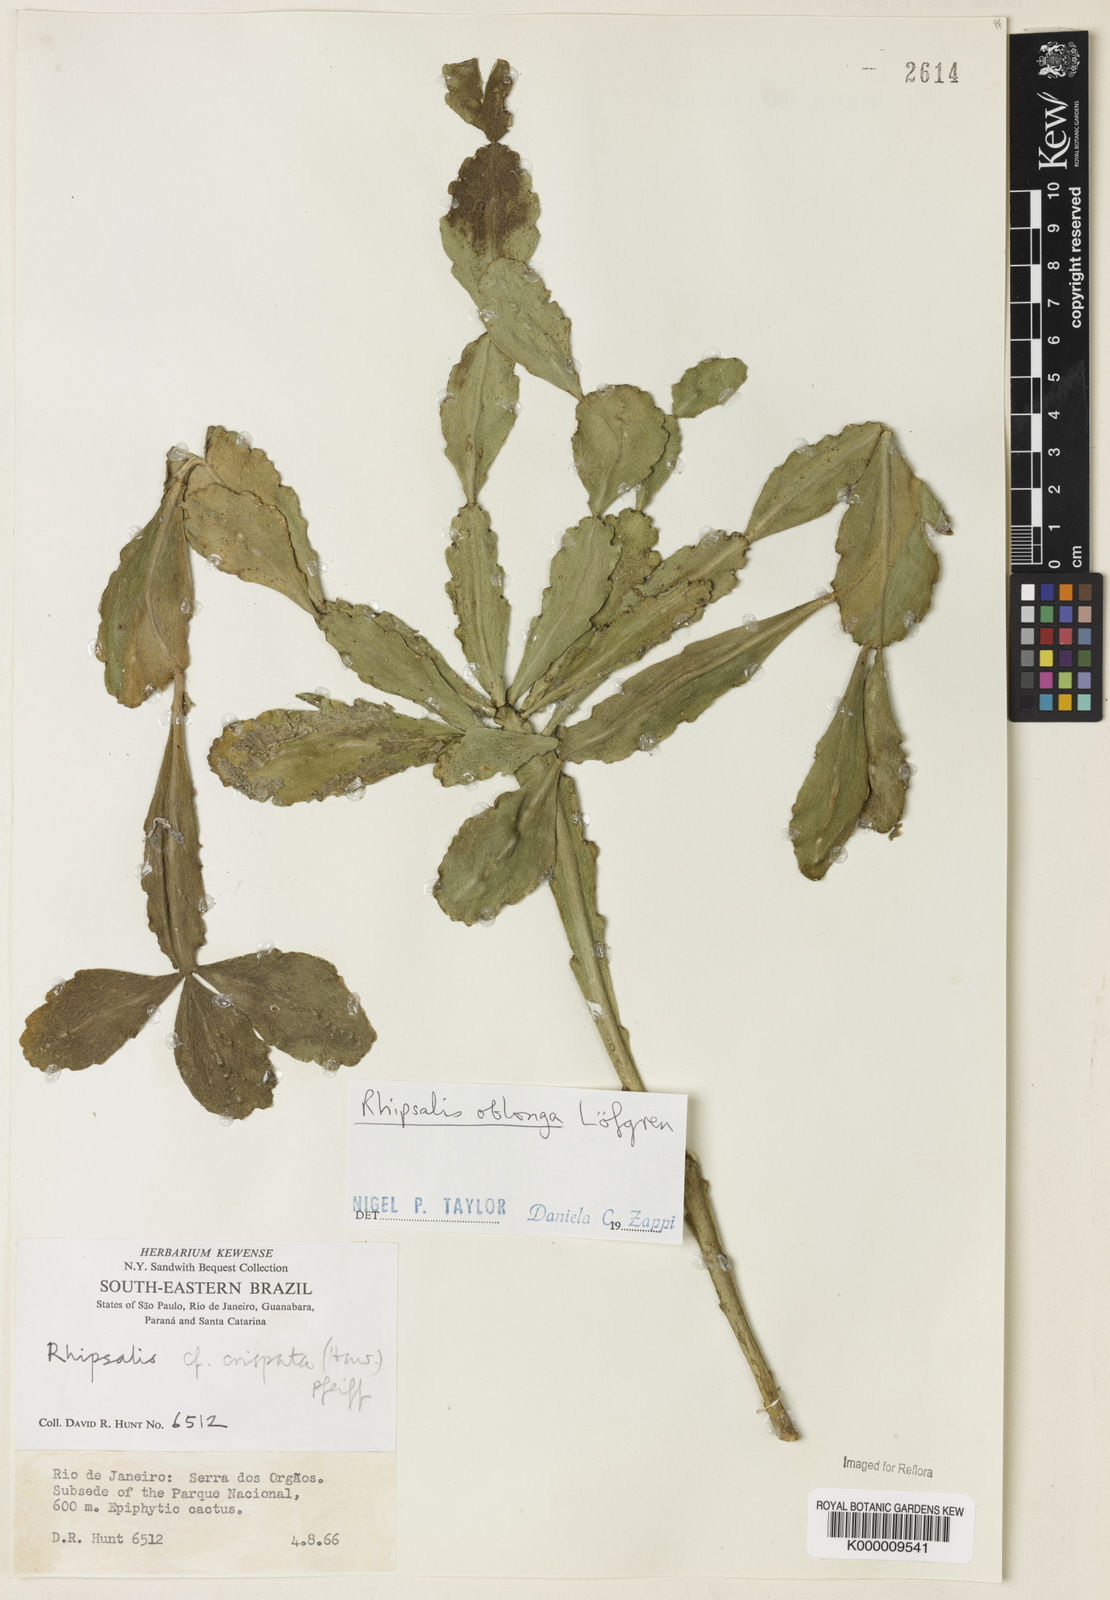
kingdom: Plantae
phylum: Tracheophyta
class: Magnoliopsida
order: Caryophyllales
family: Cactaceae
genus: Rhipsalis
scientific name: Rhipsalis
